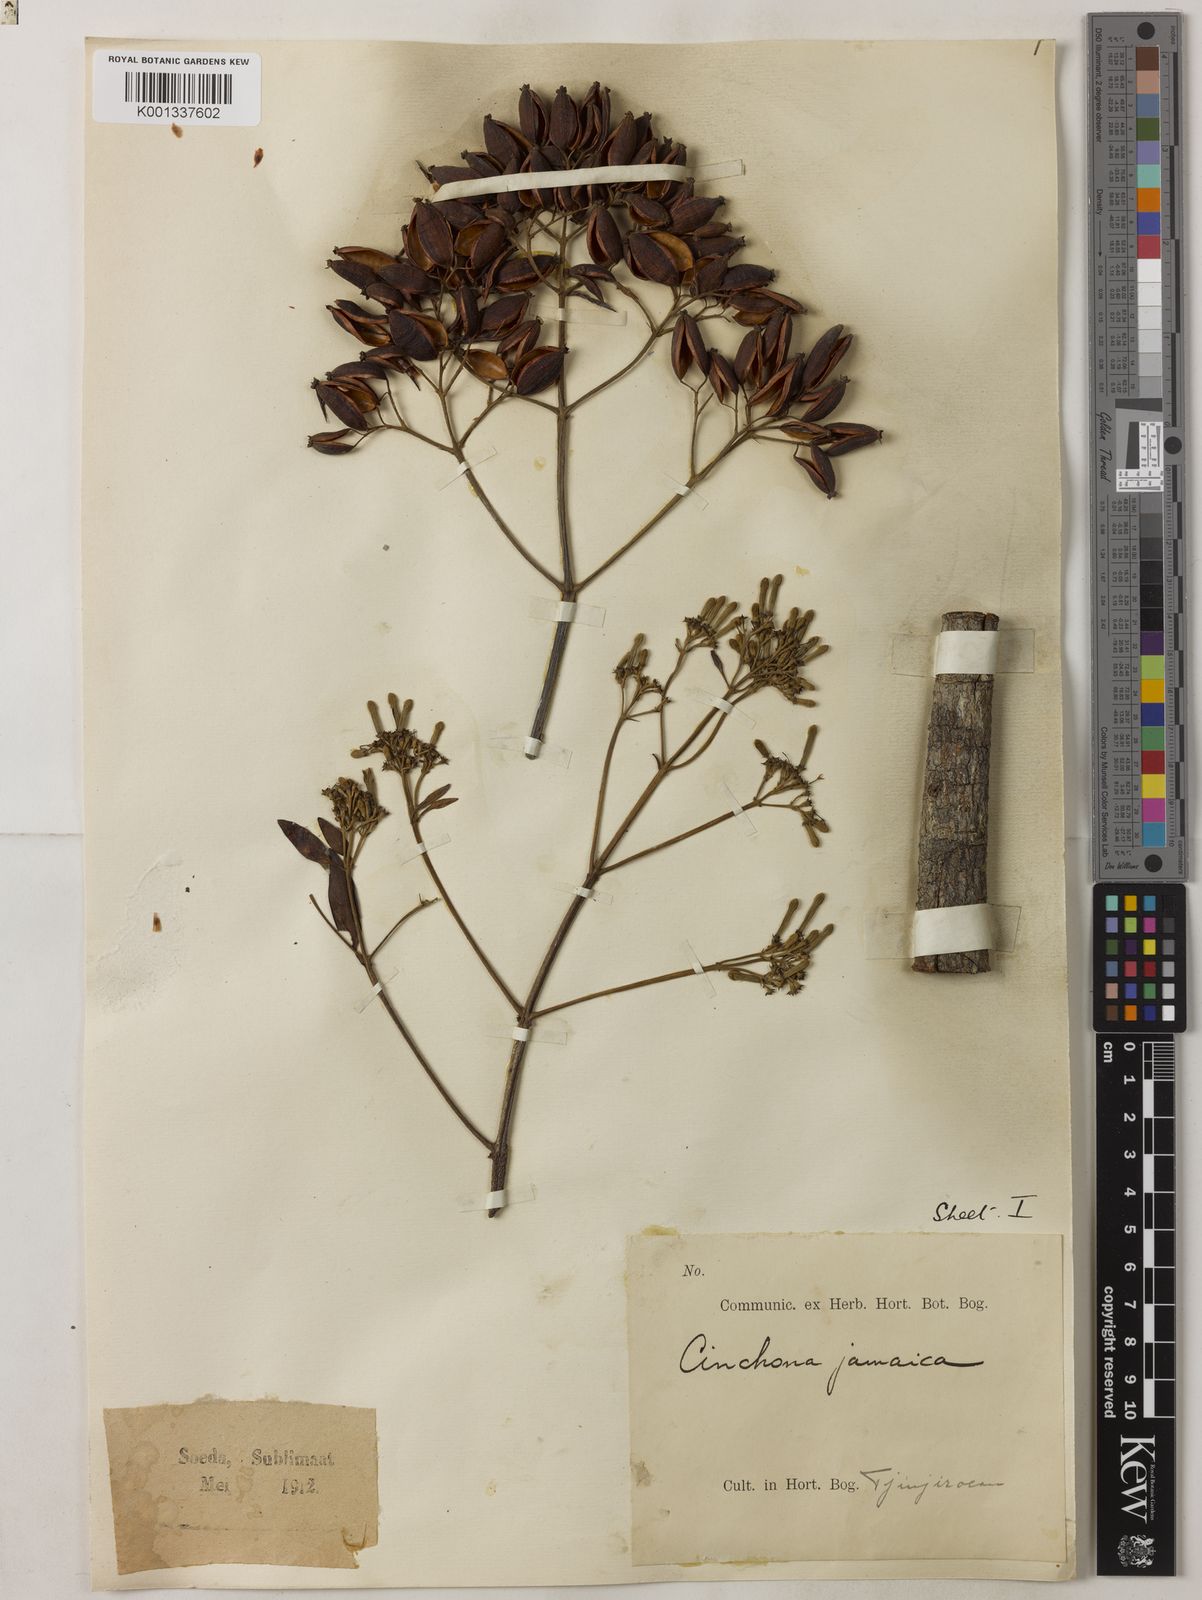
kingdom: Plantae
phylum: Tracheophyta
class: Magnoliopsida
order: Gentianales
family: Rubiaceae
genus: Exostema
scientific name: Exostema caribaeum
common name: Princewood
